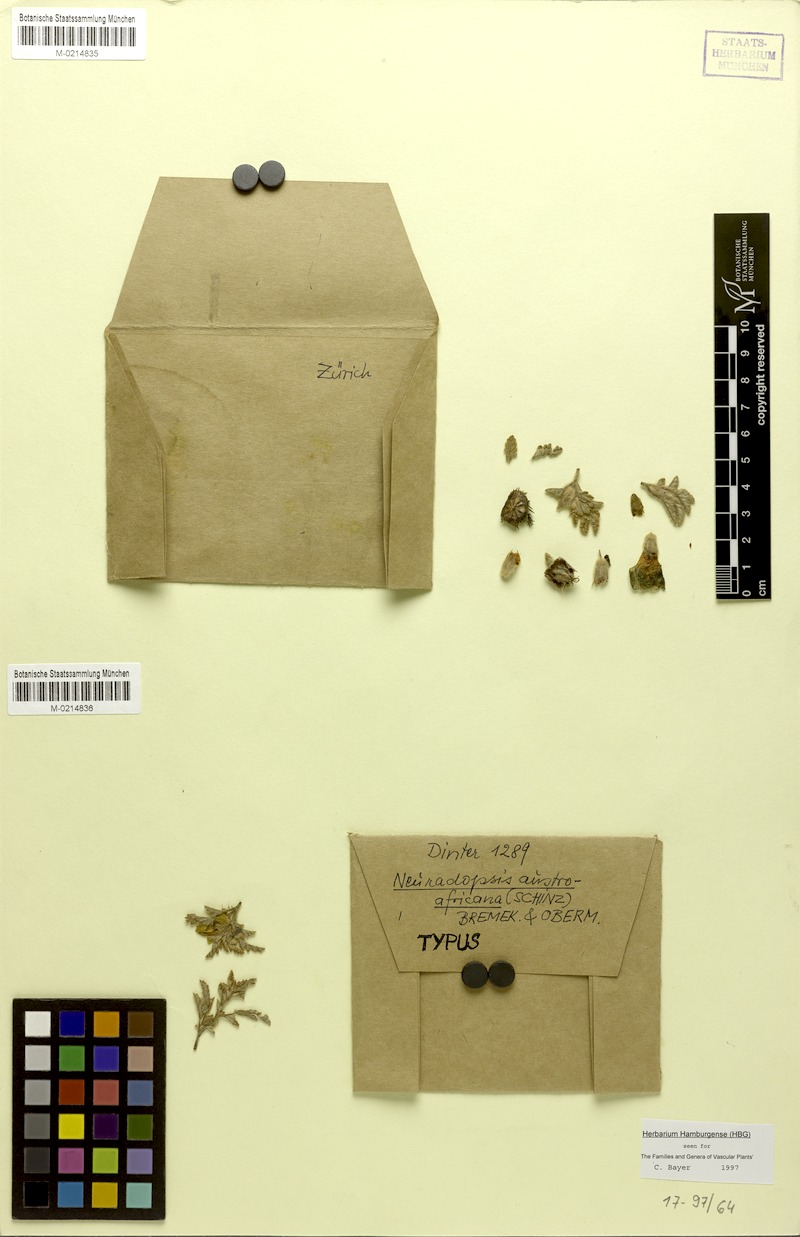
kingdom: Plantae
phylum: Tracheophyta
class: Magnoliopsida
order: Malvales
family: Neuradaceae
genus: Neuradopsis
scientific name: Neuradopsis austroafricana
